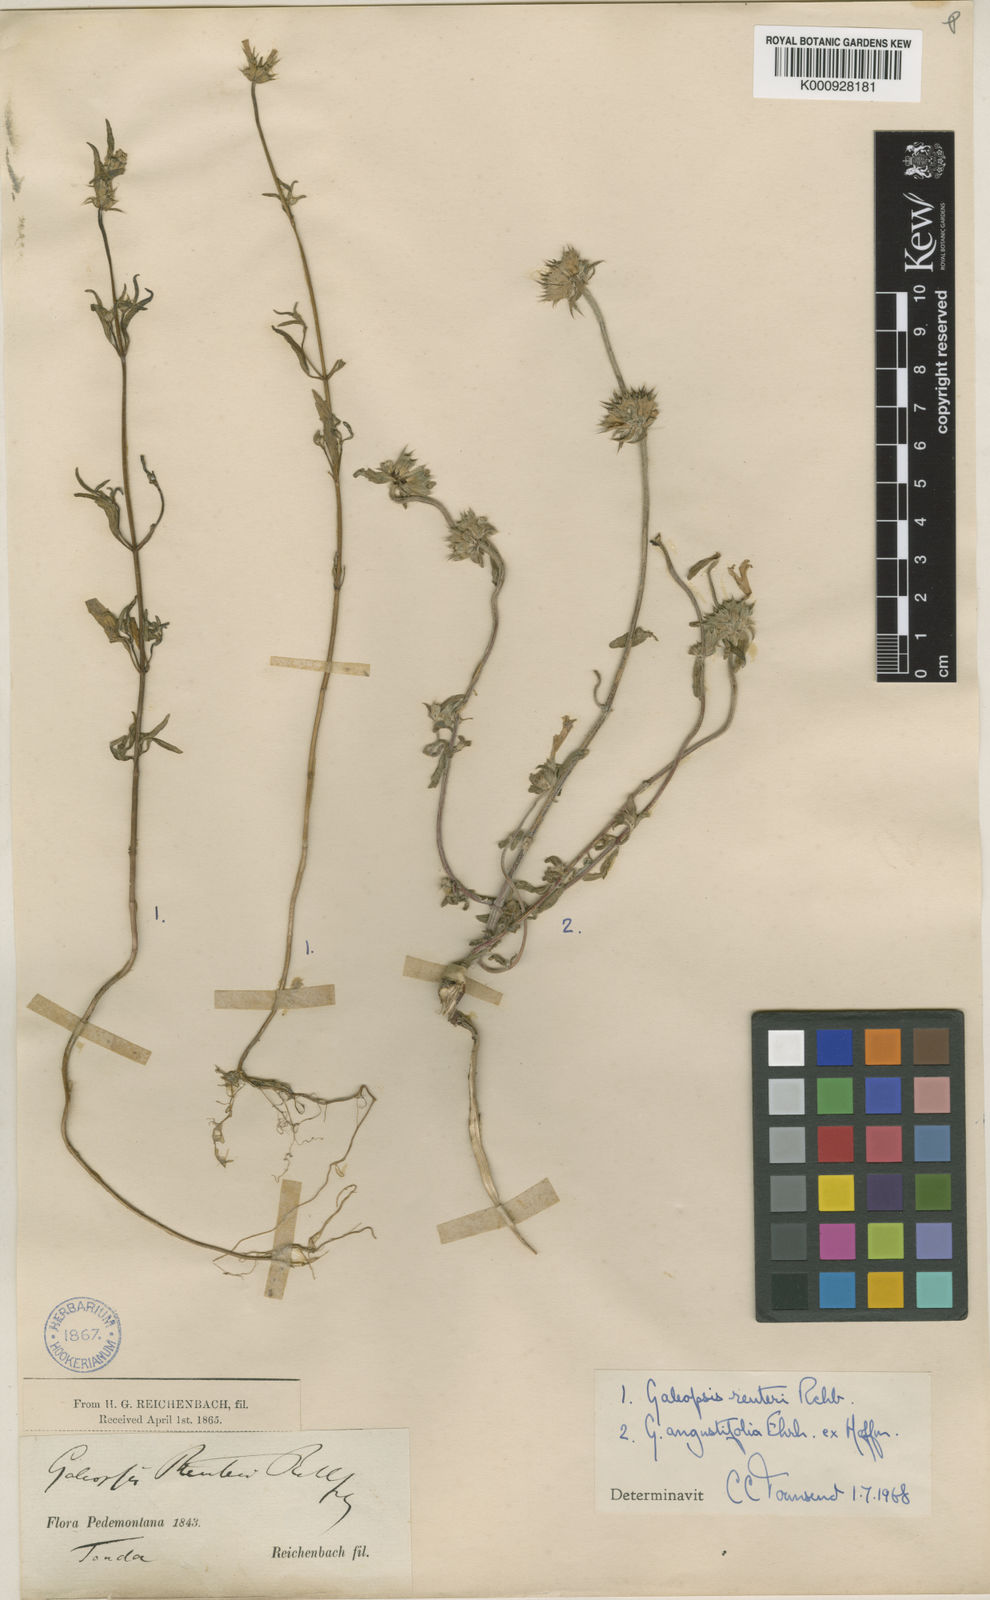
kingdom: Plantae
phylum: Tracheophyta
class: Magnoliopsida
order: Lamiales
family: Lamiaceae
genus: Galeopsis
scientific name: Galeopsis reuteri
